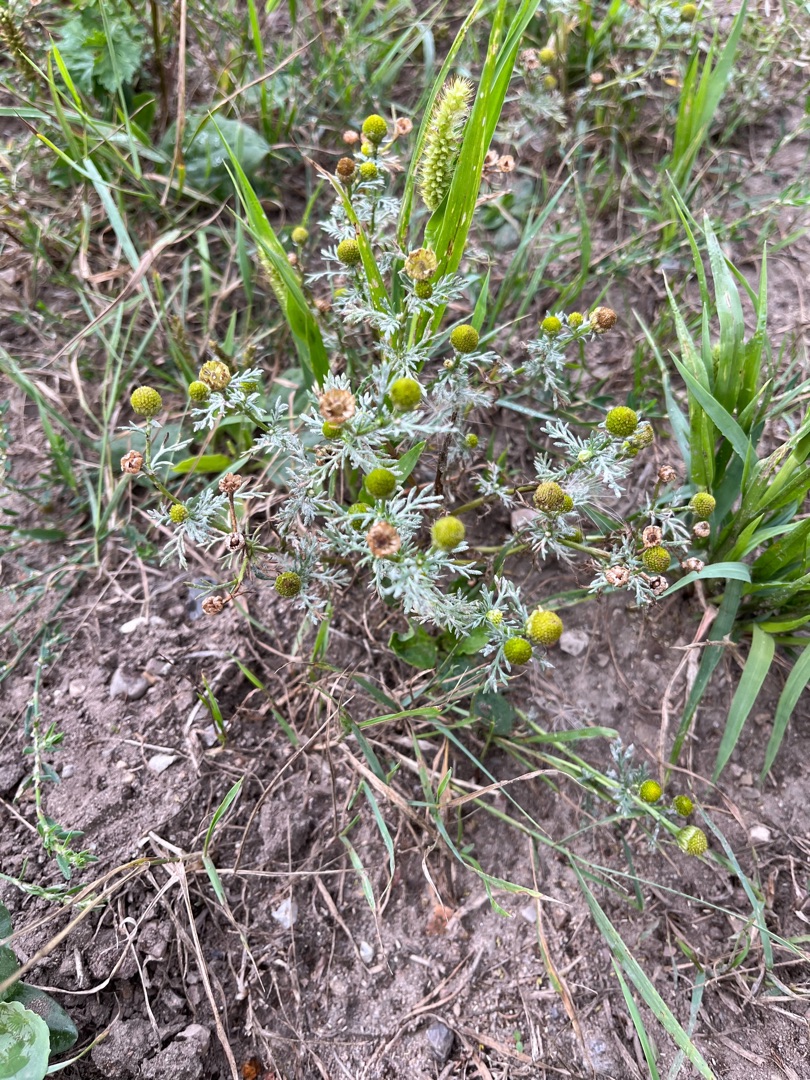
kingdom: Plantae
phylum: Tracheophyta
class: Magnoliopsida
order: Asterales
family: Asteraceae
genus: Matricaria
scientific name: Matricaria discoidea
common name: Skive-kamille
